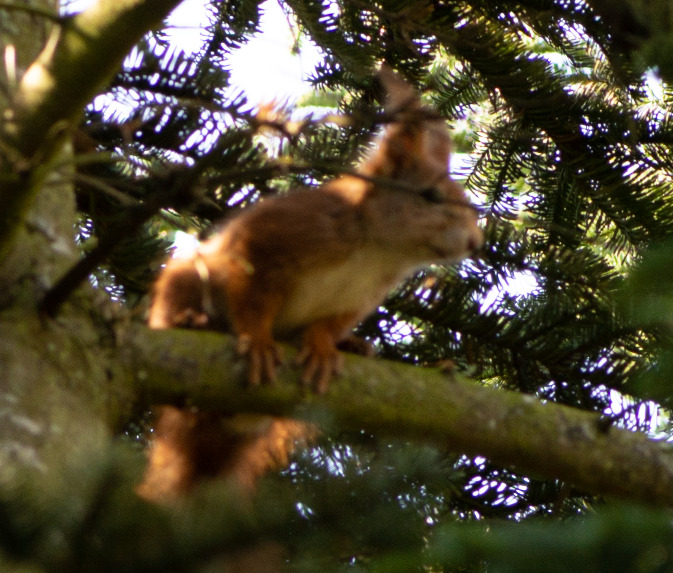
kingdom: Animalia
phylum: Chordata
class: Mammalia
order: Rodentia
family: Sciuridae
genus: Sciurus
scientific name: Sciurus vulgaris
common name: Egern
